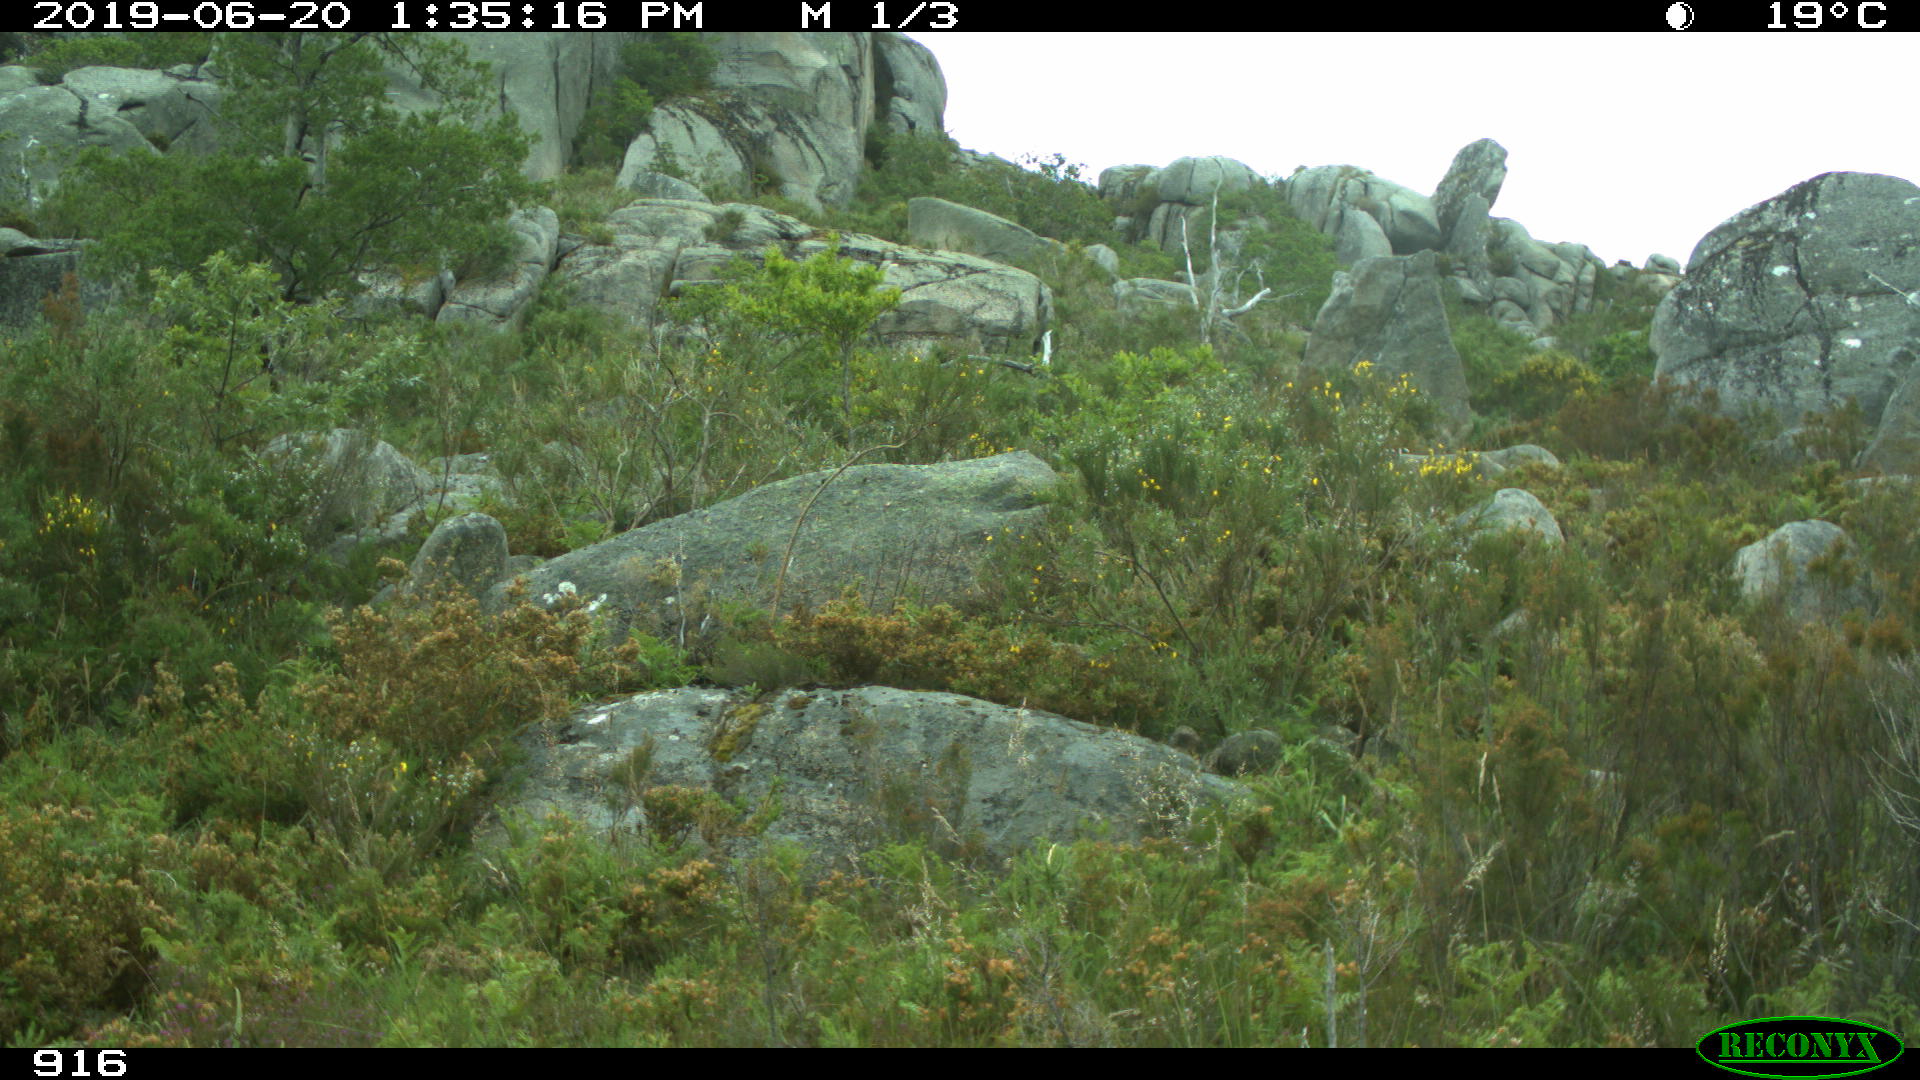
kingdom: Animalia
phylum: Chordata
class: Mammalia
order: Artiodactyla
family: Suidae
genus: Sus
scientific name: Sus scrofa
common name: Wild boar
